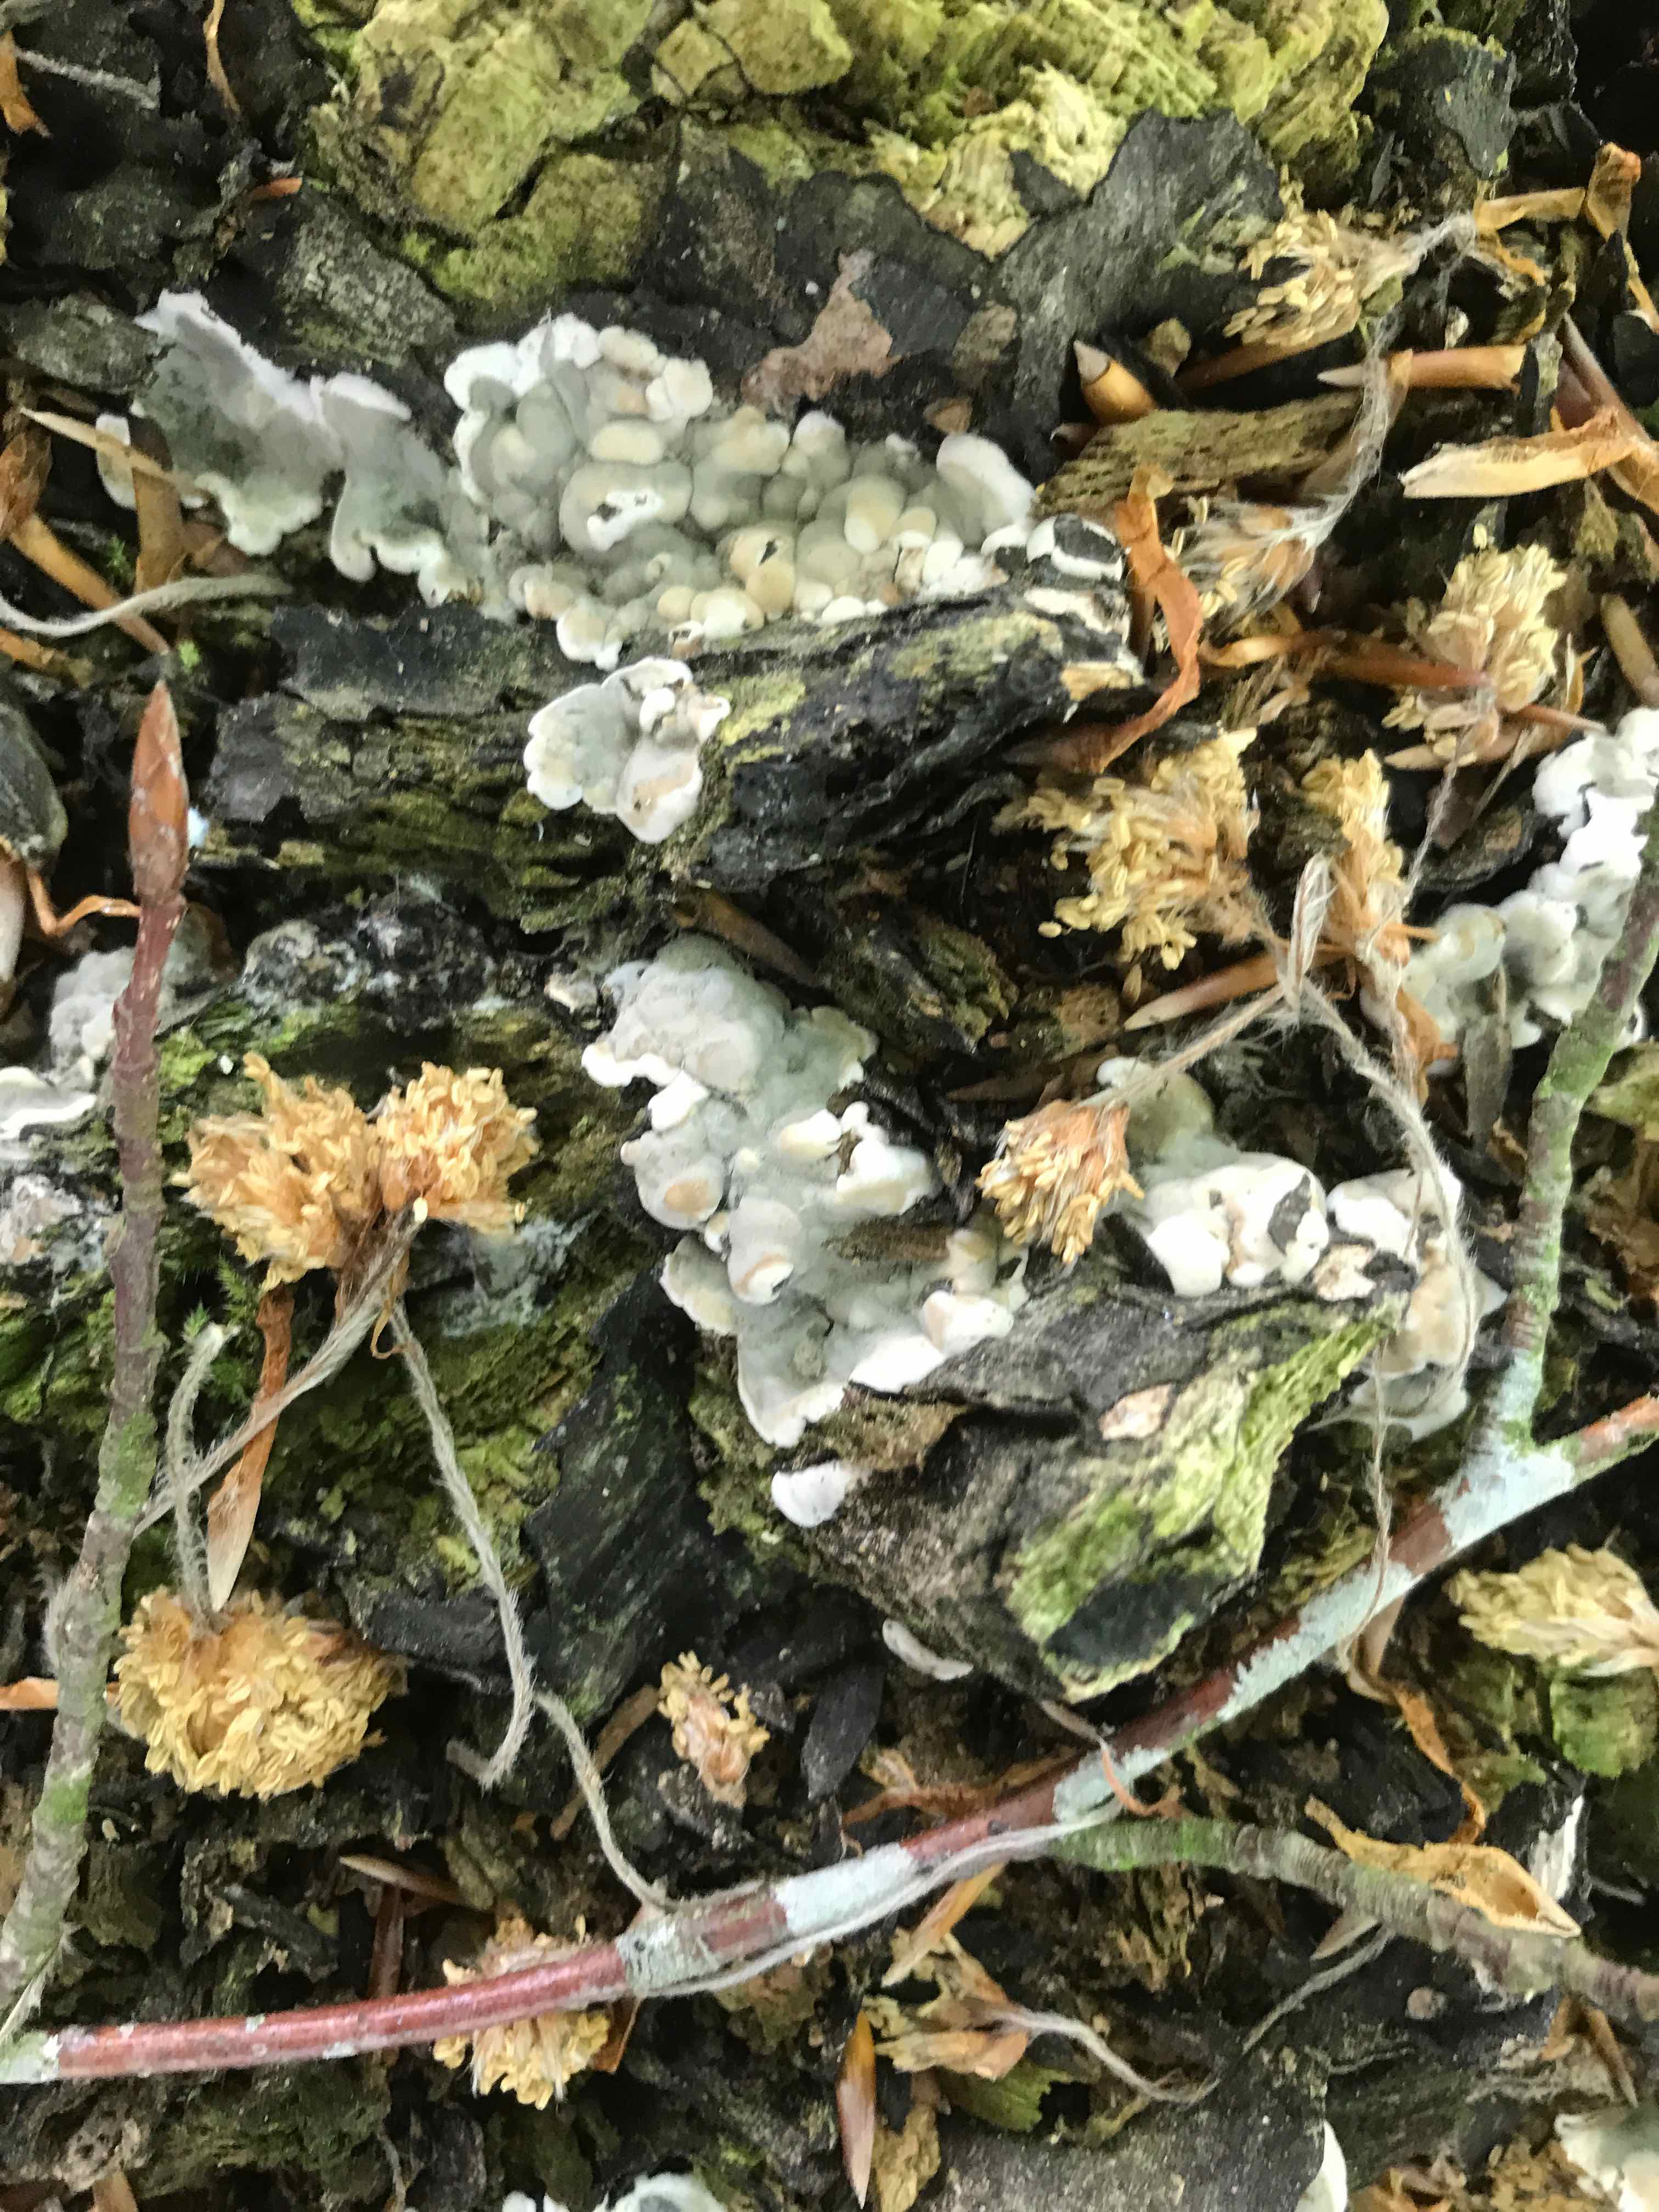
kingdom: Fungi
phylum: Ascomycota
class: Sordariomycetes
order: Xylariales
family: Xylariaceae
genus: Kretzschmaria
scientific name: Kretzschmaria deusta
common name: stor kulsvamp
